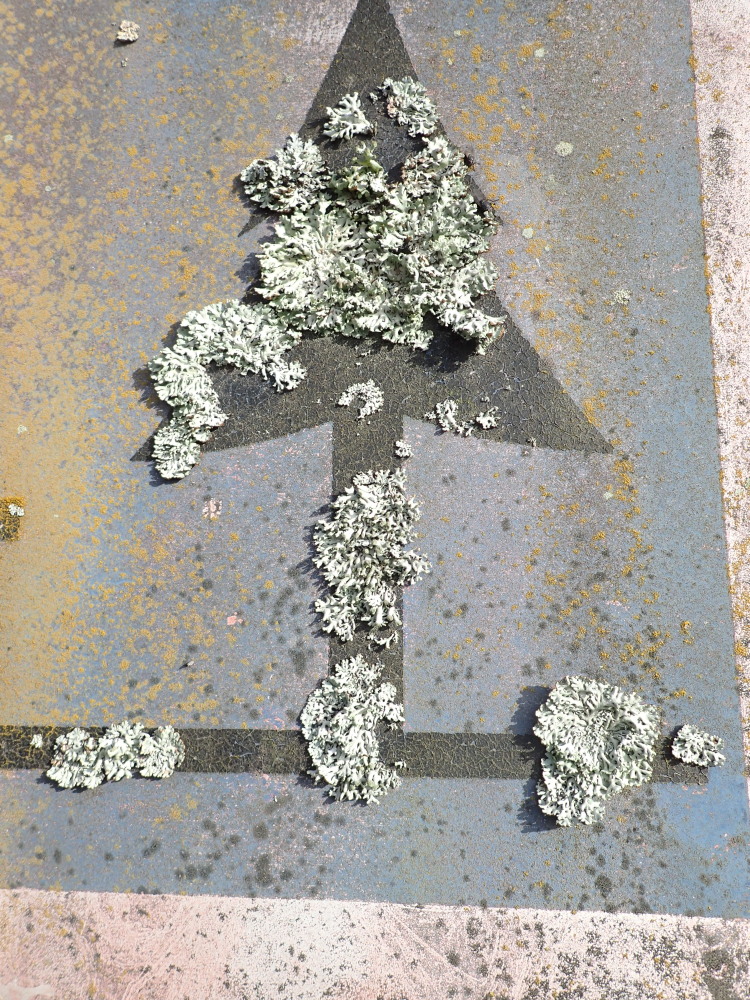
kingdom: Fungi
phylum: Ascomycota
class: Lecanoromycetes
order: Lecanorales
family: Parmeliaceae
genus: Hypogymnia
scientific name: Hypogymnia physodes
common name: almindelig kvistlav
